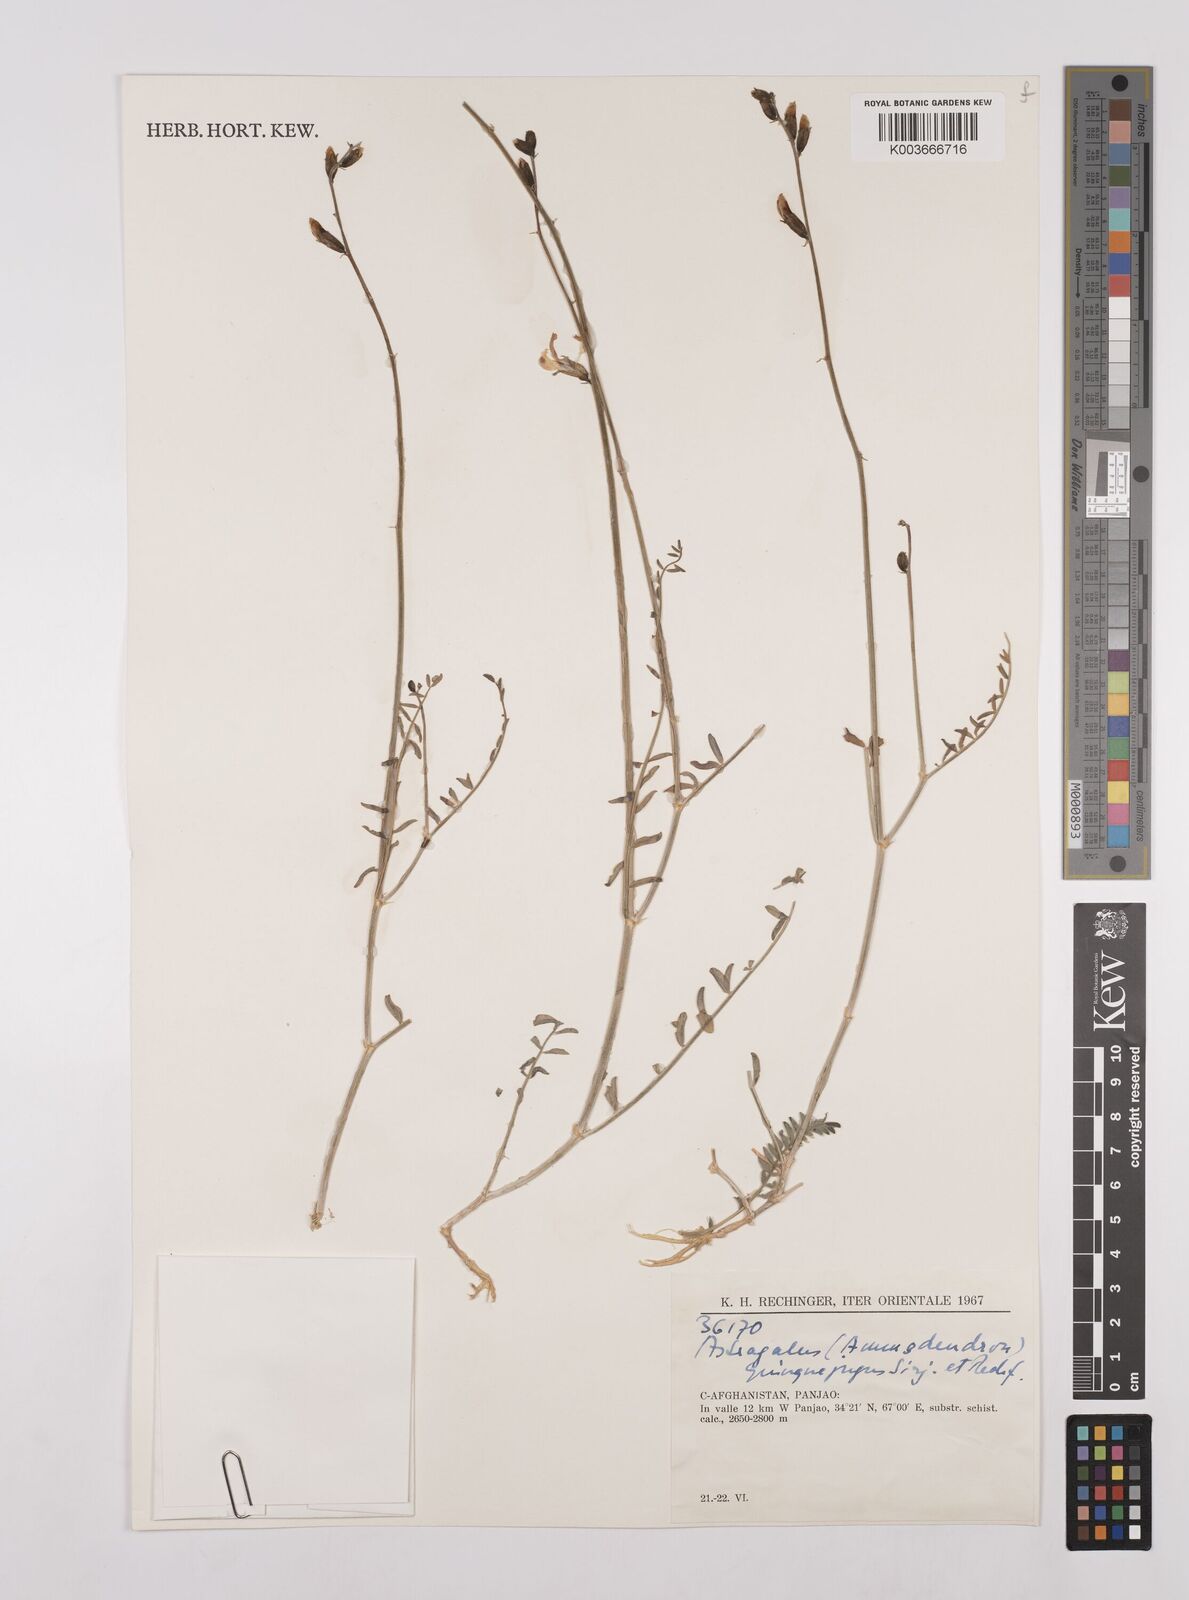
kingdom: Plantae
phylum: Tracheophyta
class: Magnoliopsida
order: Fabales
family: Fabaceae
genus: Astragalus
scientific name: Astragalus griffithii
